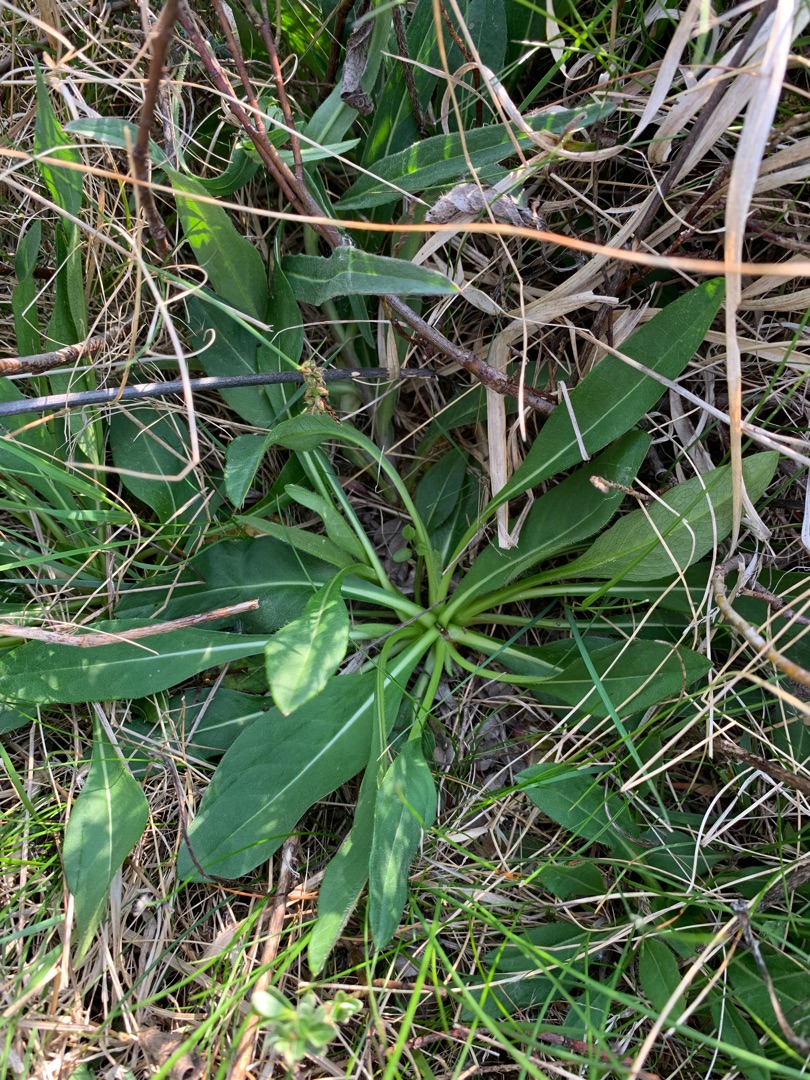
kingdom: Plantae
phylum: Tracheophyta
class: Magnoliopsida
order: Dipsacales
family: Caprifoliaceae
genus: Succisa
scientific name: Succisa pratensis
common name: Djævelsbid
